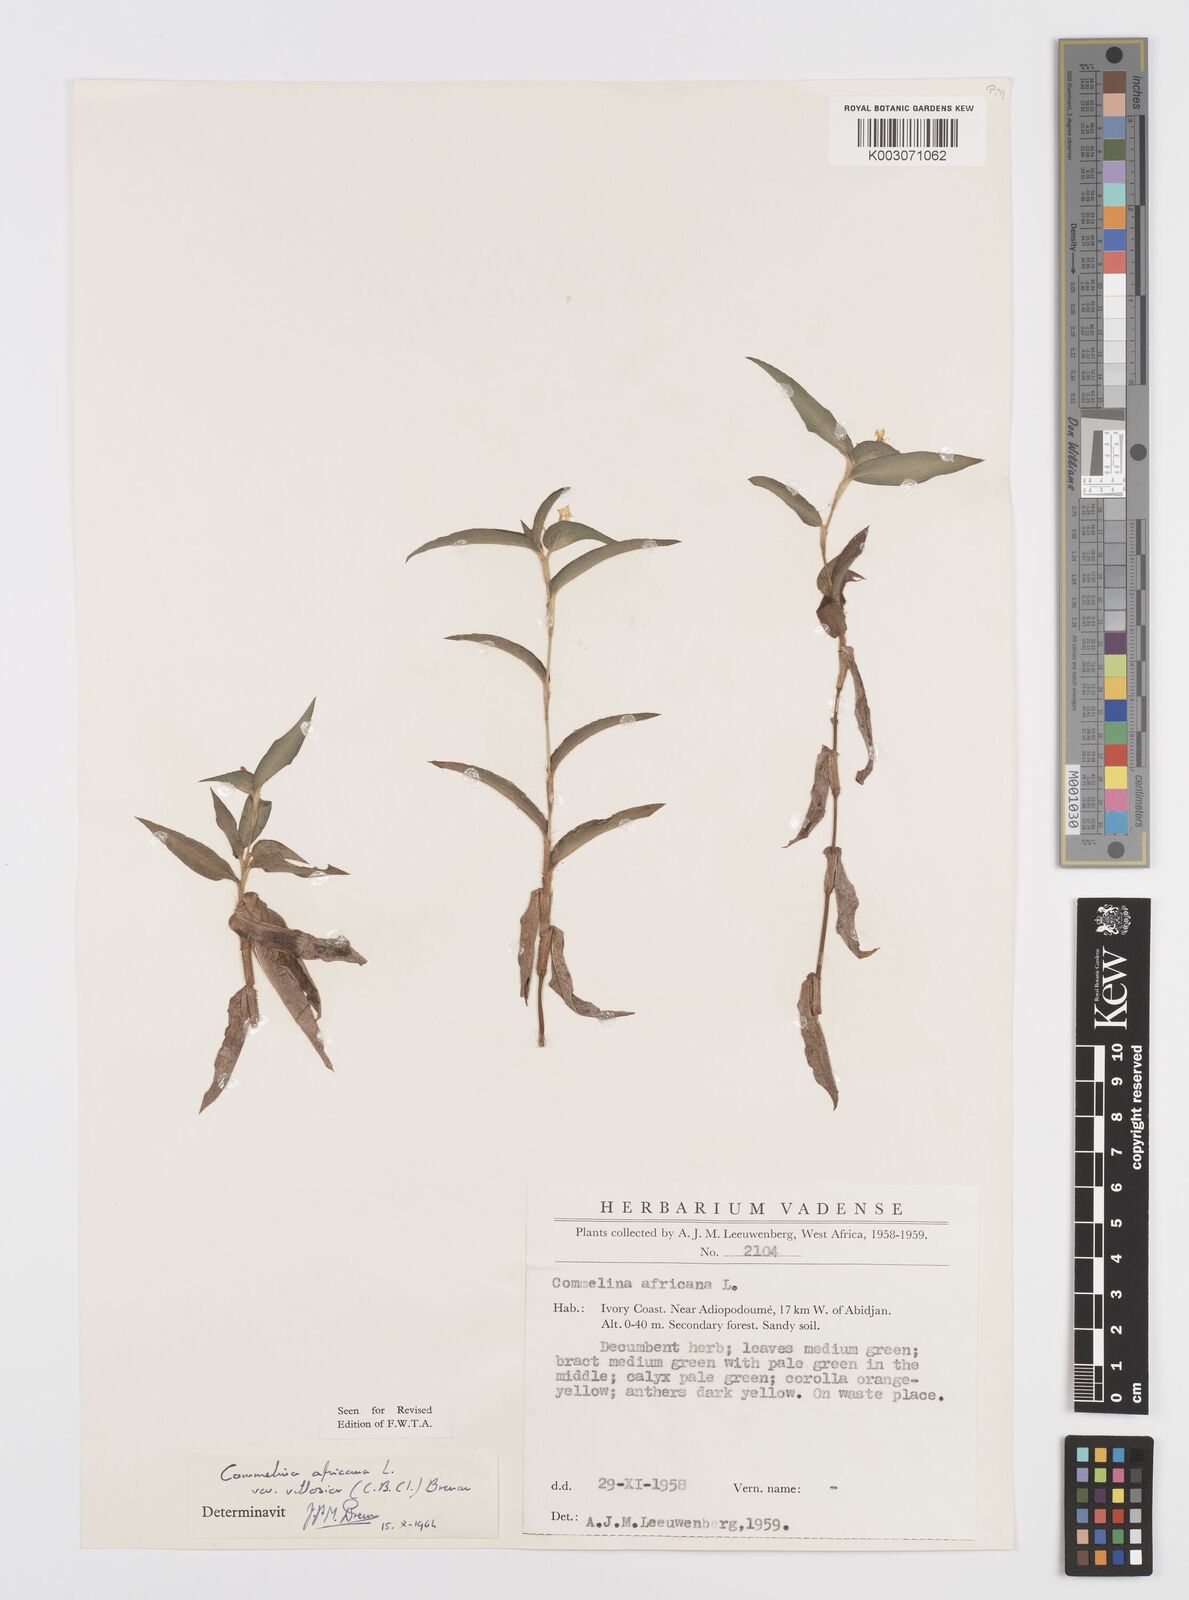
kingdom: Plantae
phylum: Tracheophyta
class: Liliopsida
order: Commelinales
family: Commelinaceae
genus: Commelina
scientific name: Commelina africana
